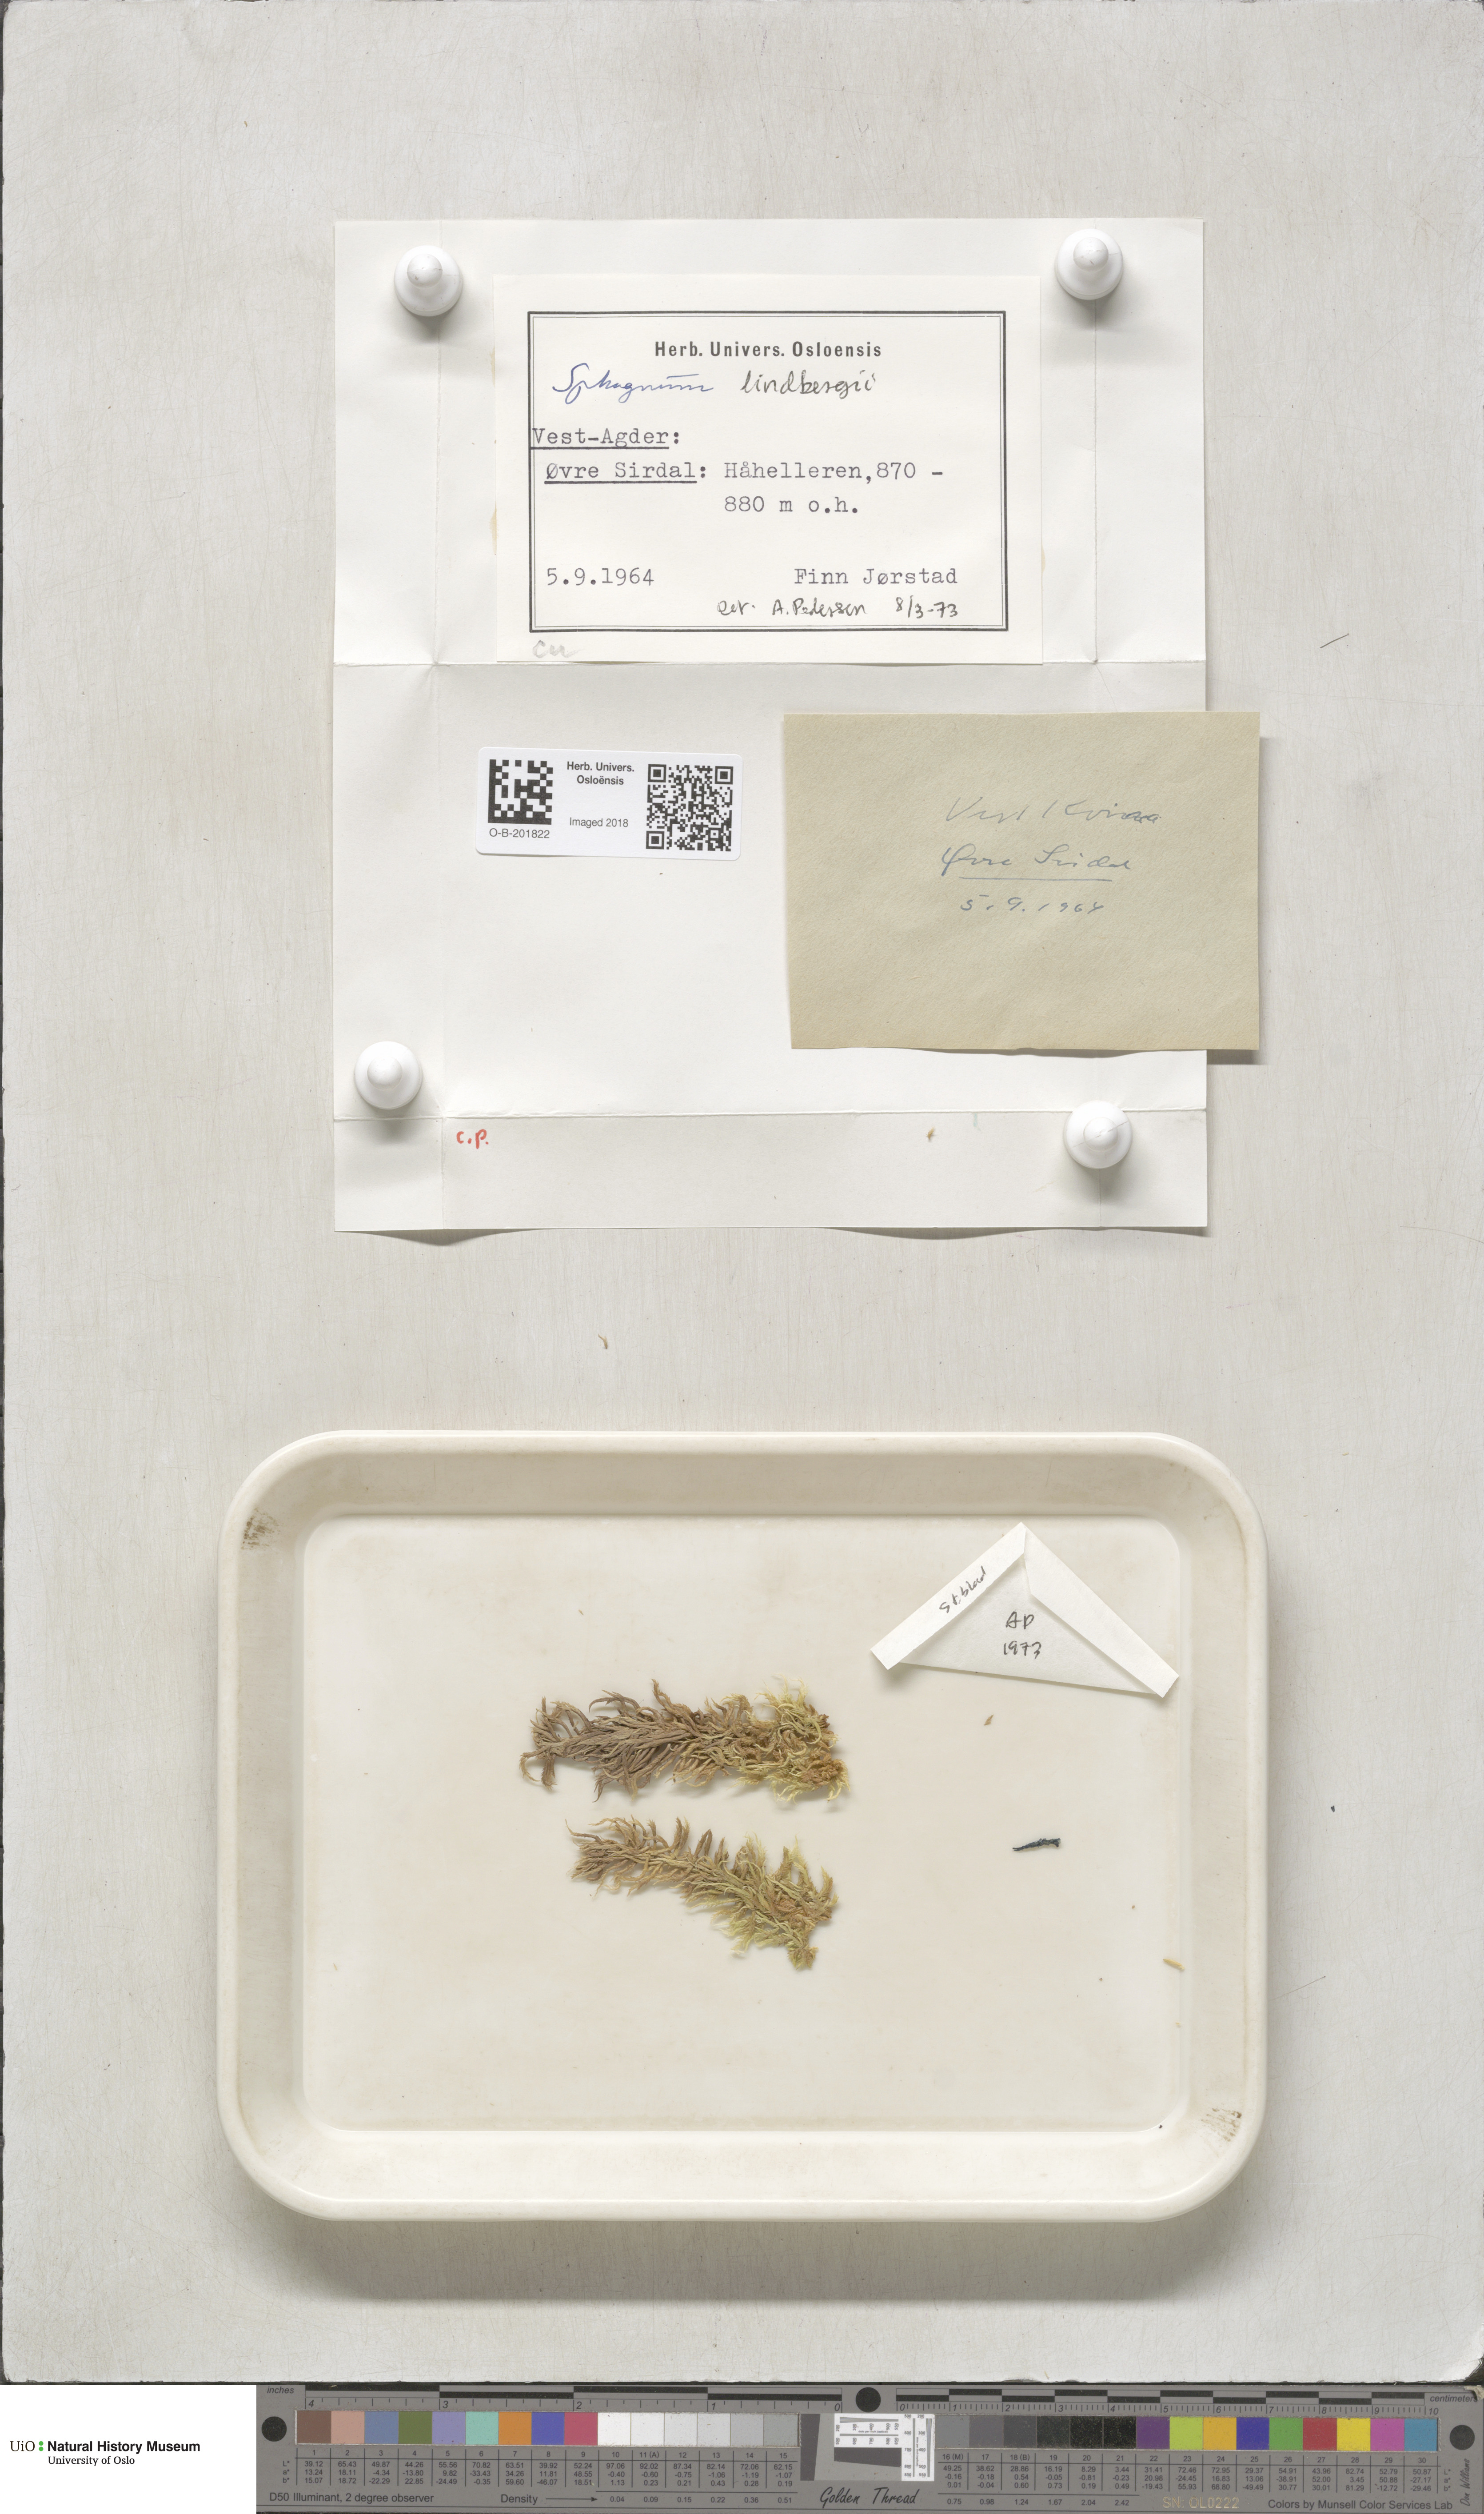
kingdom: Plantae
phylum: Bryophyta
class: Sphagnopsida
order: Sphagnales
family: Sphagnaceae
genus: Sphagnum
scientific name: Sphagnum lindbergii
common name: Lindberg's peat moss
